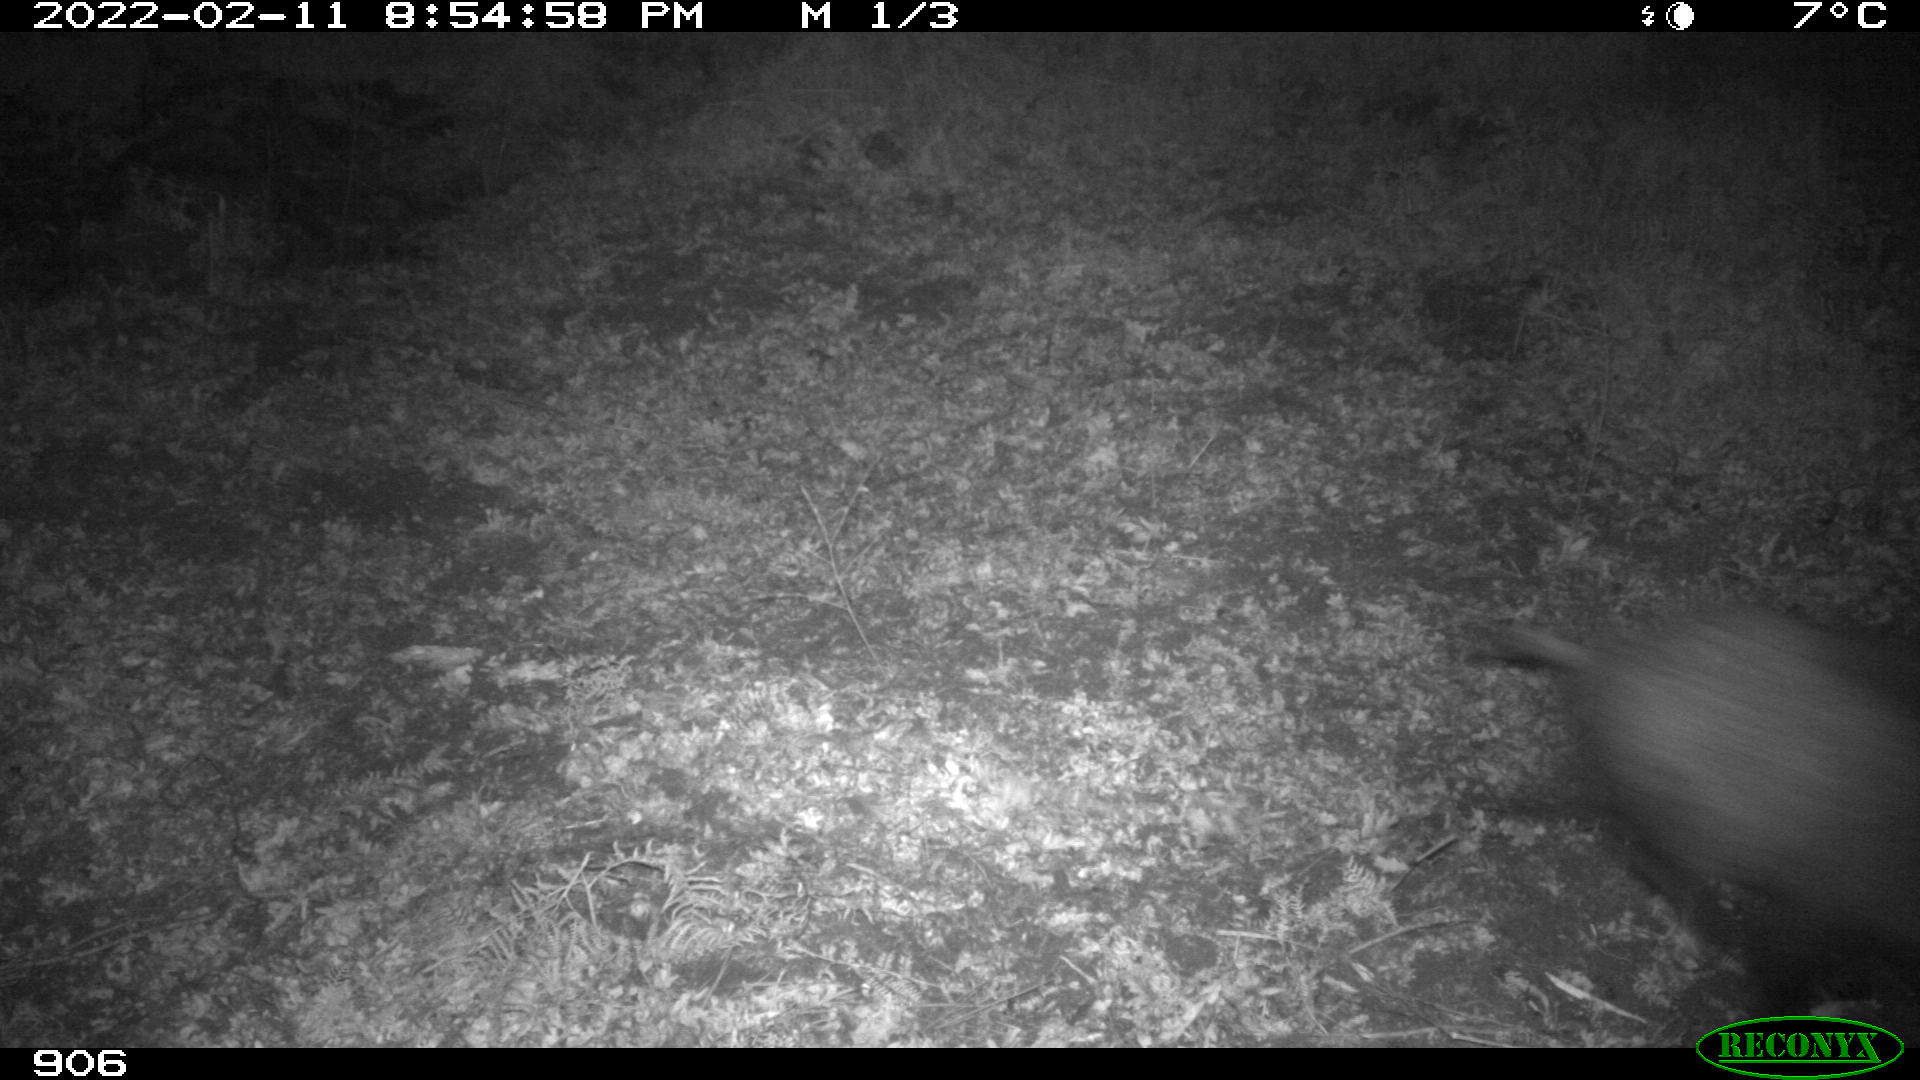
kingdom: Animalia
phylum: Chordata
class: Mammalia
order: Artiodactyla
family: Suidae
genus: Sus
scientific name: Sus scrofa
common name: Wild boar
